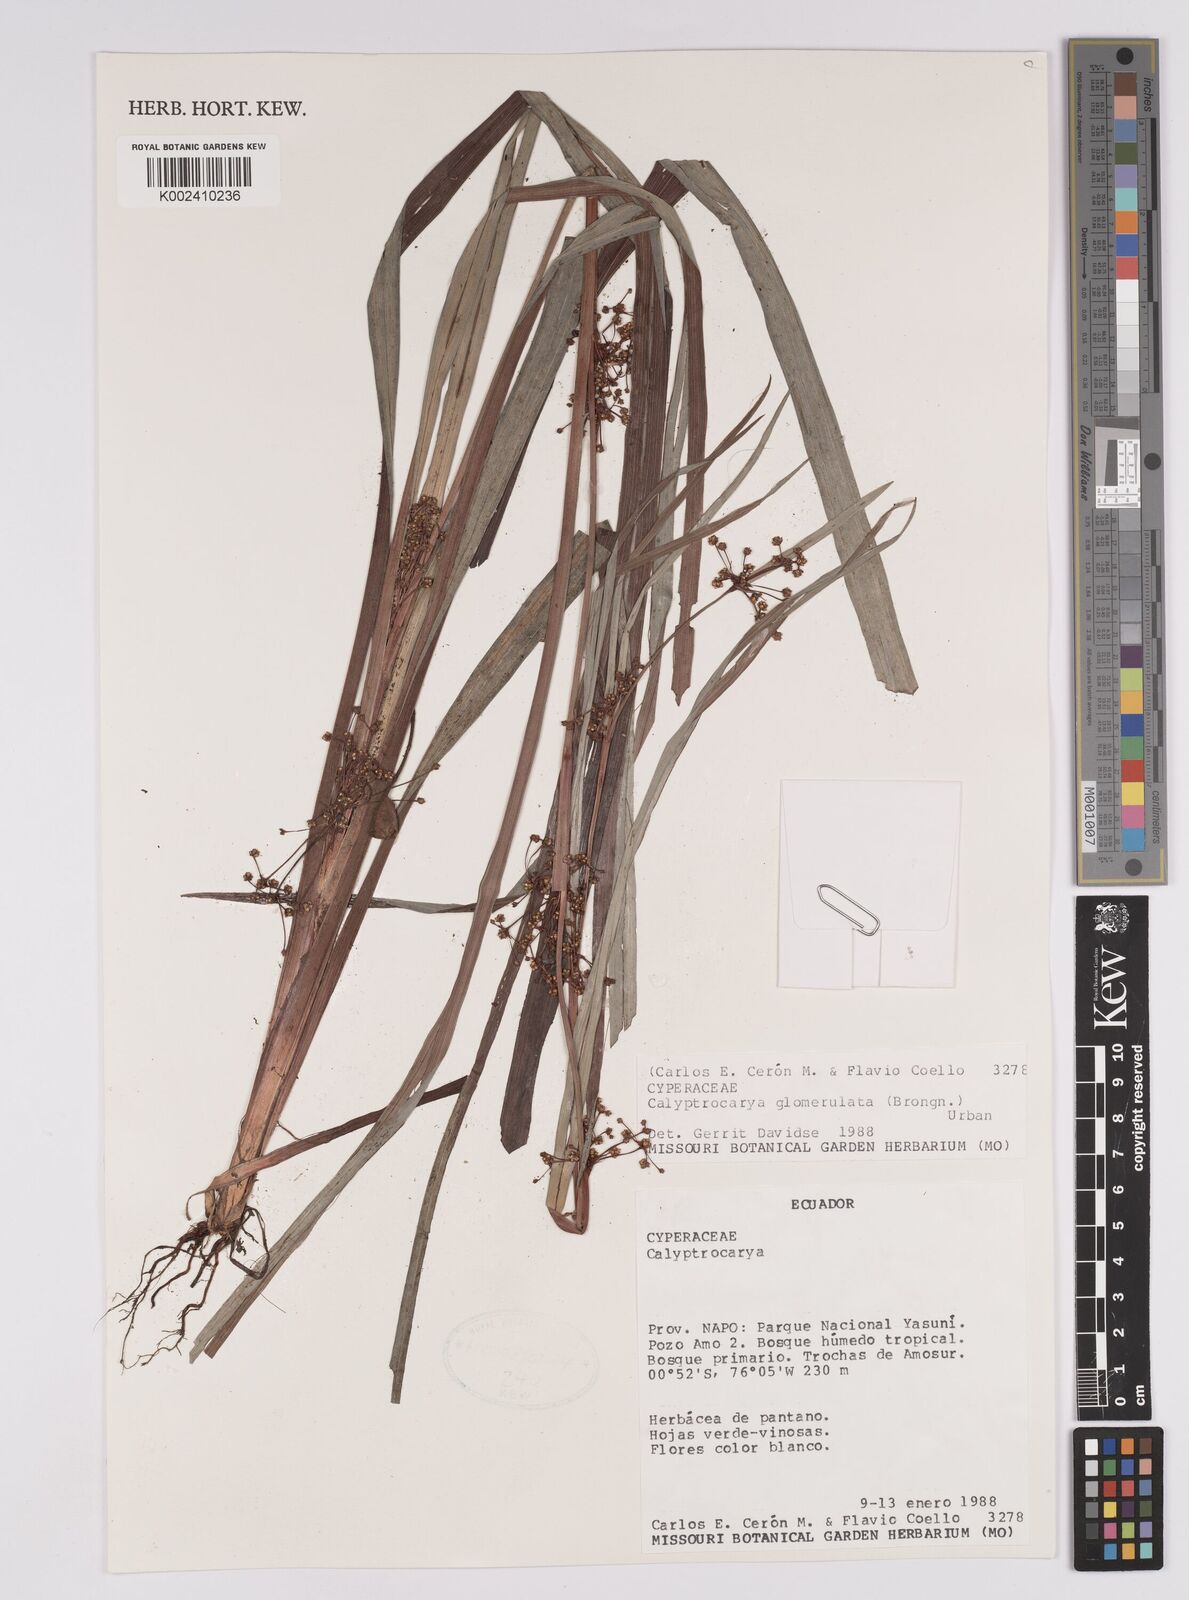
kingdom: Plantae
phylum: Tracheophyta
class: Liliopsida
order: Poales
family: Cyperaceae
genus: Calyptrocarya
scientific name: Calyptrocarya glomerulata
